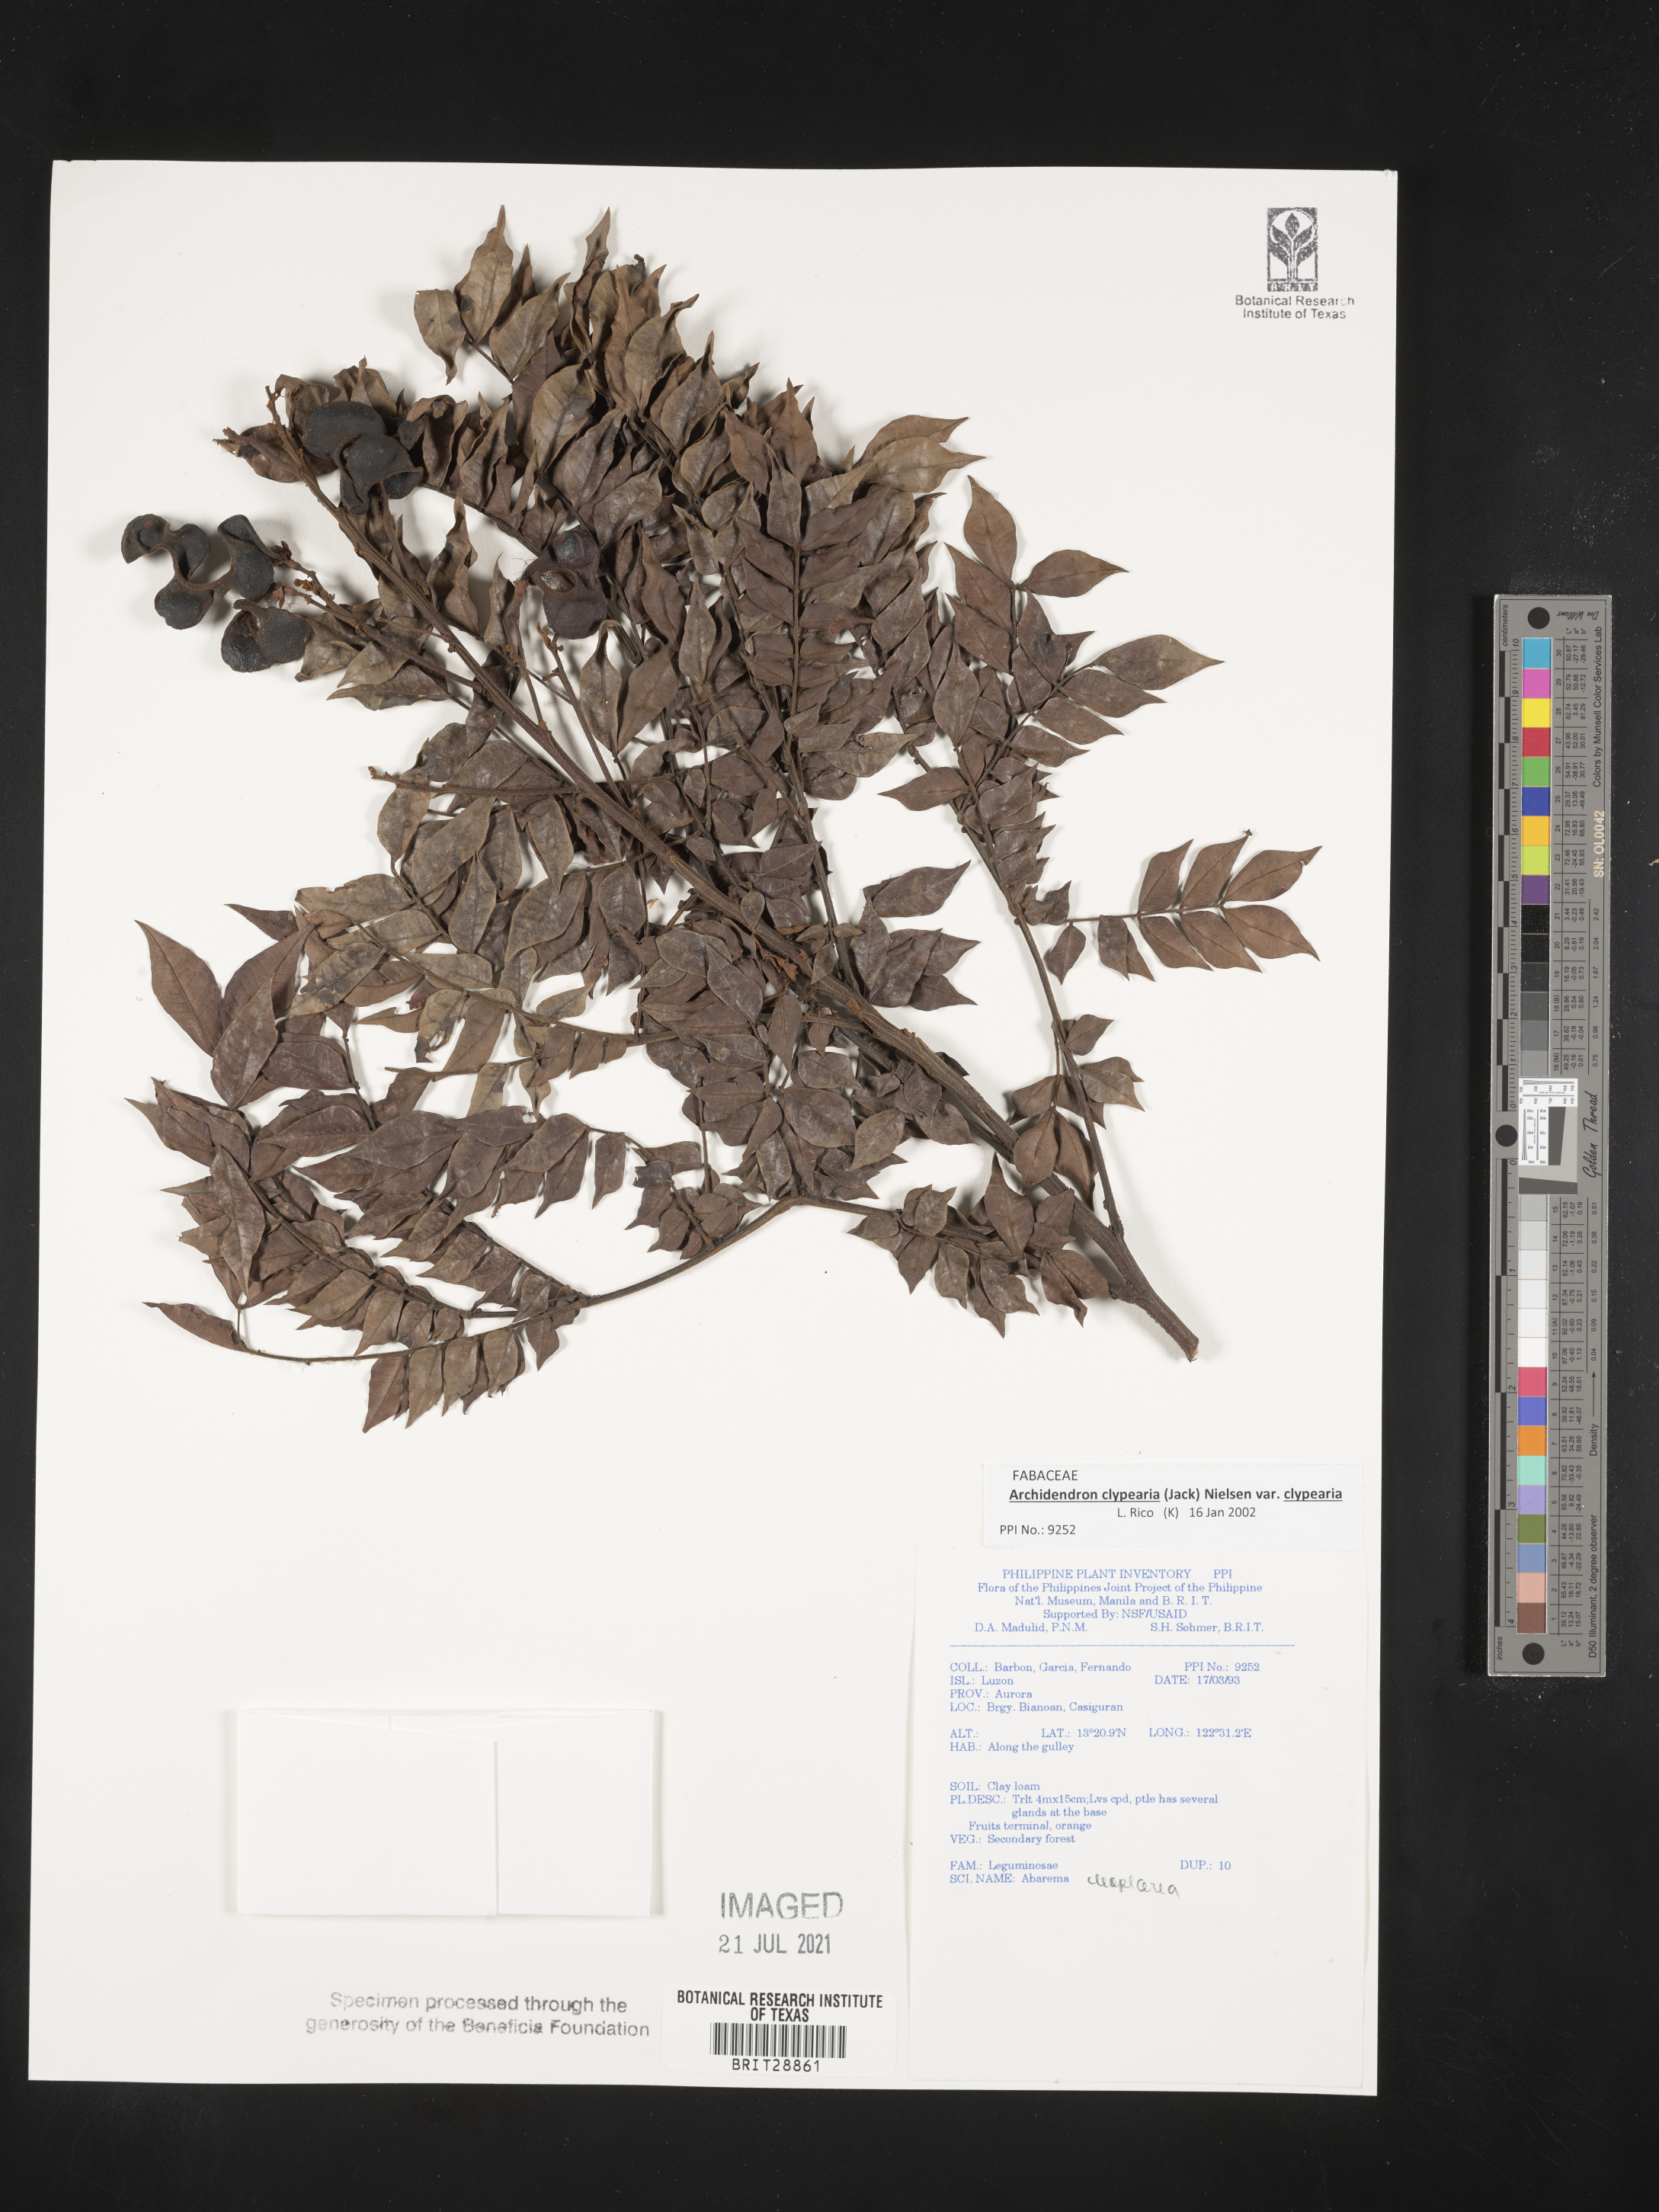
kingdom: Plantae
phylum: Tracheophyta
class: Magnoliopsida
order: Fabales
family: Fabaceae
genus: Archidendron
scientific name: Archidendron clypearia
